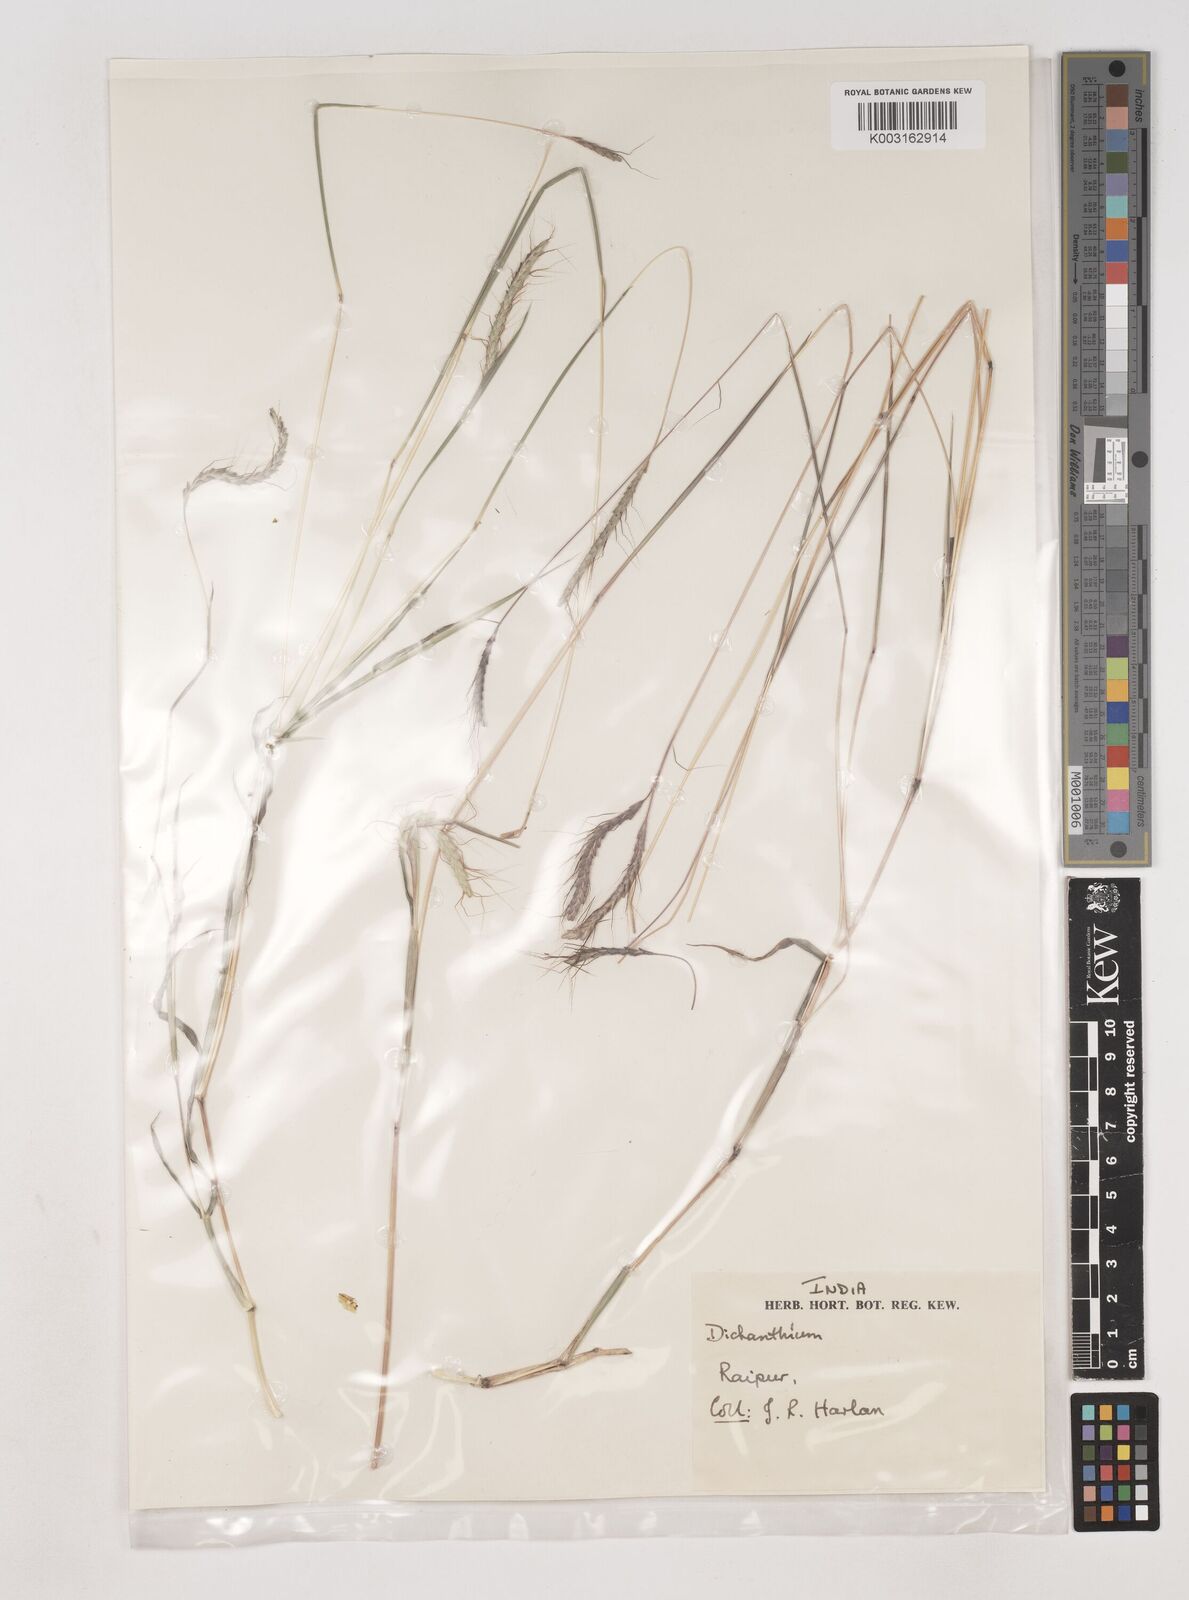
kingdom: Plantae
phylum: Tracheophyta
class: Liliopsida
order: Poales
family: Poaceae
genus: Dichanthium
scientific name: Dichanthium aristatum
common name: Angleton bluestem
